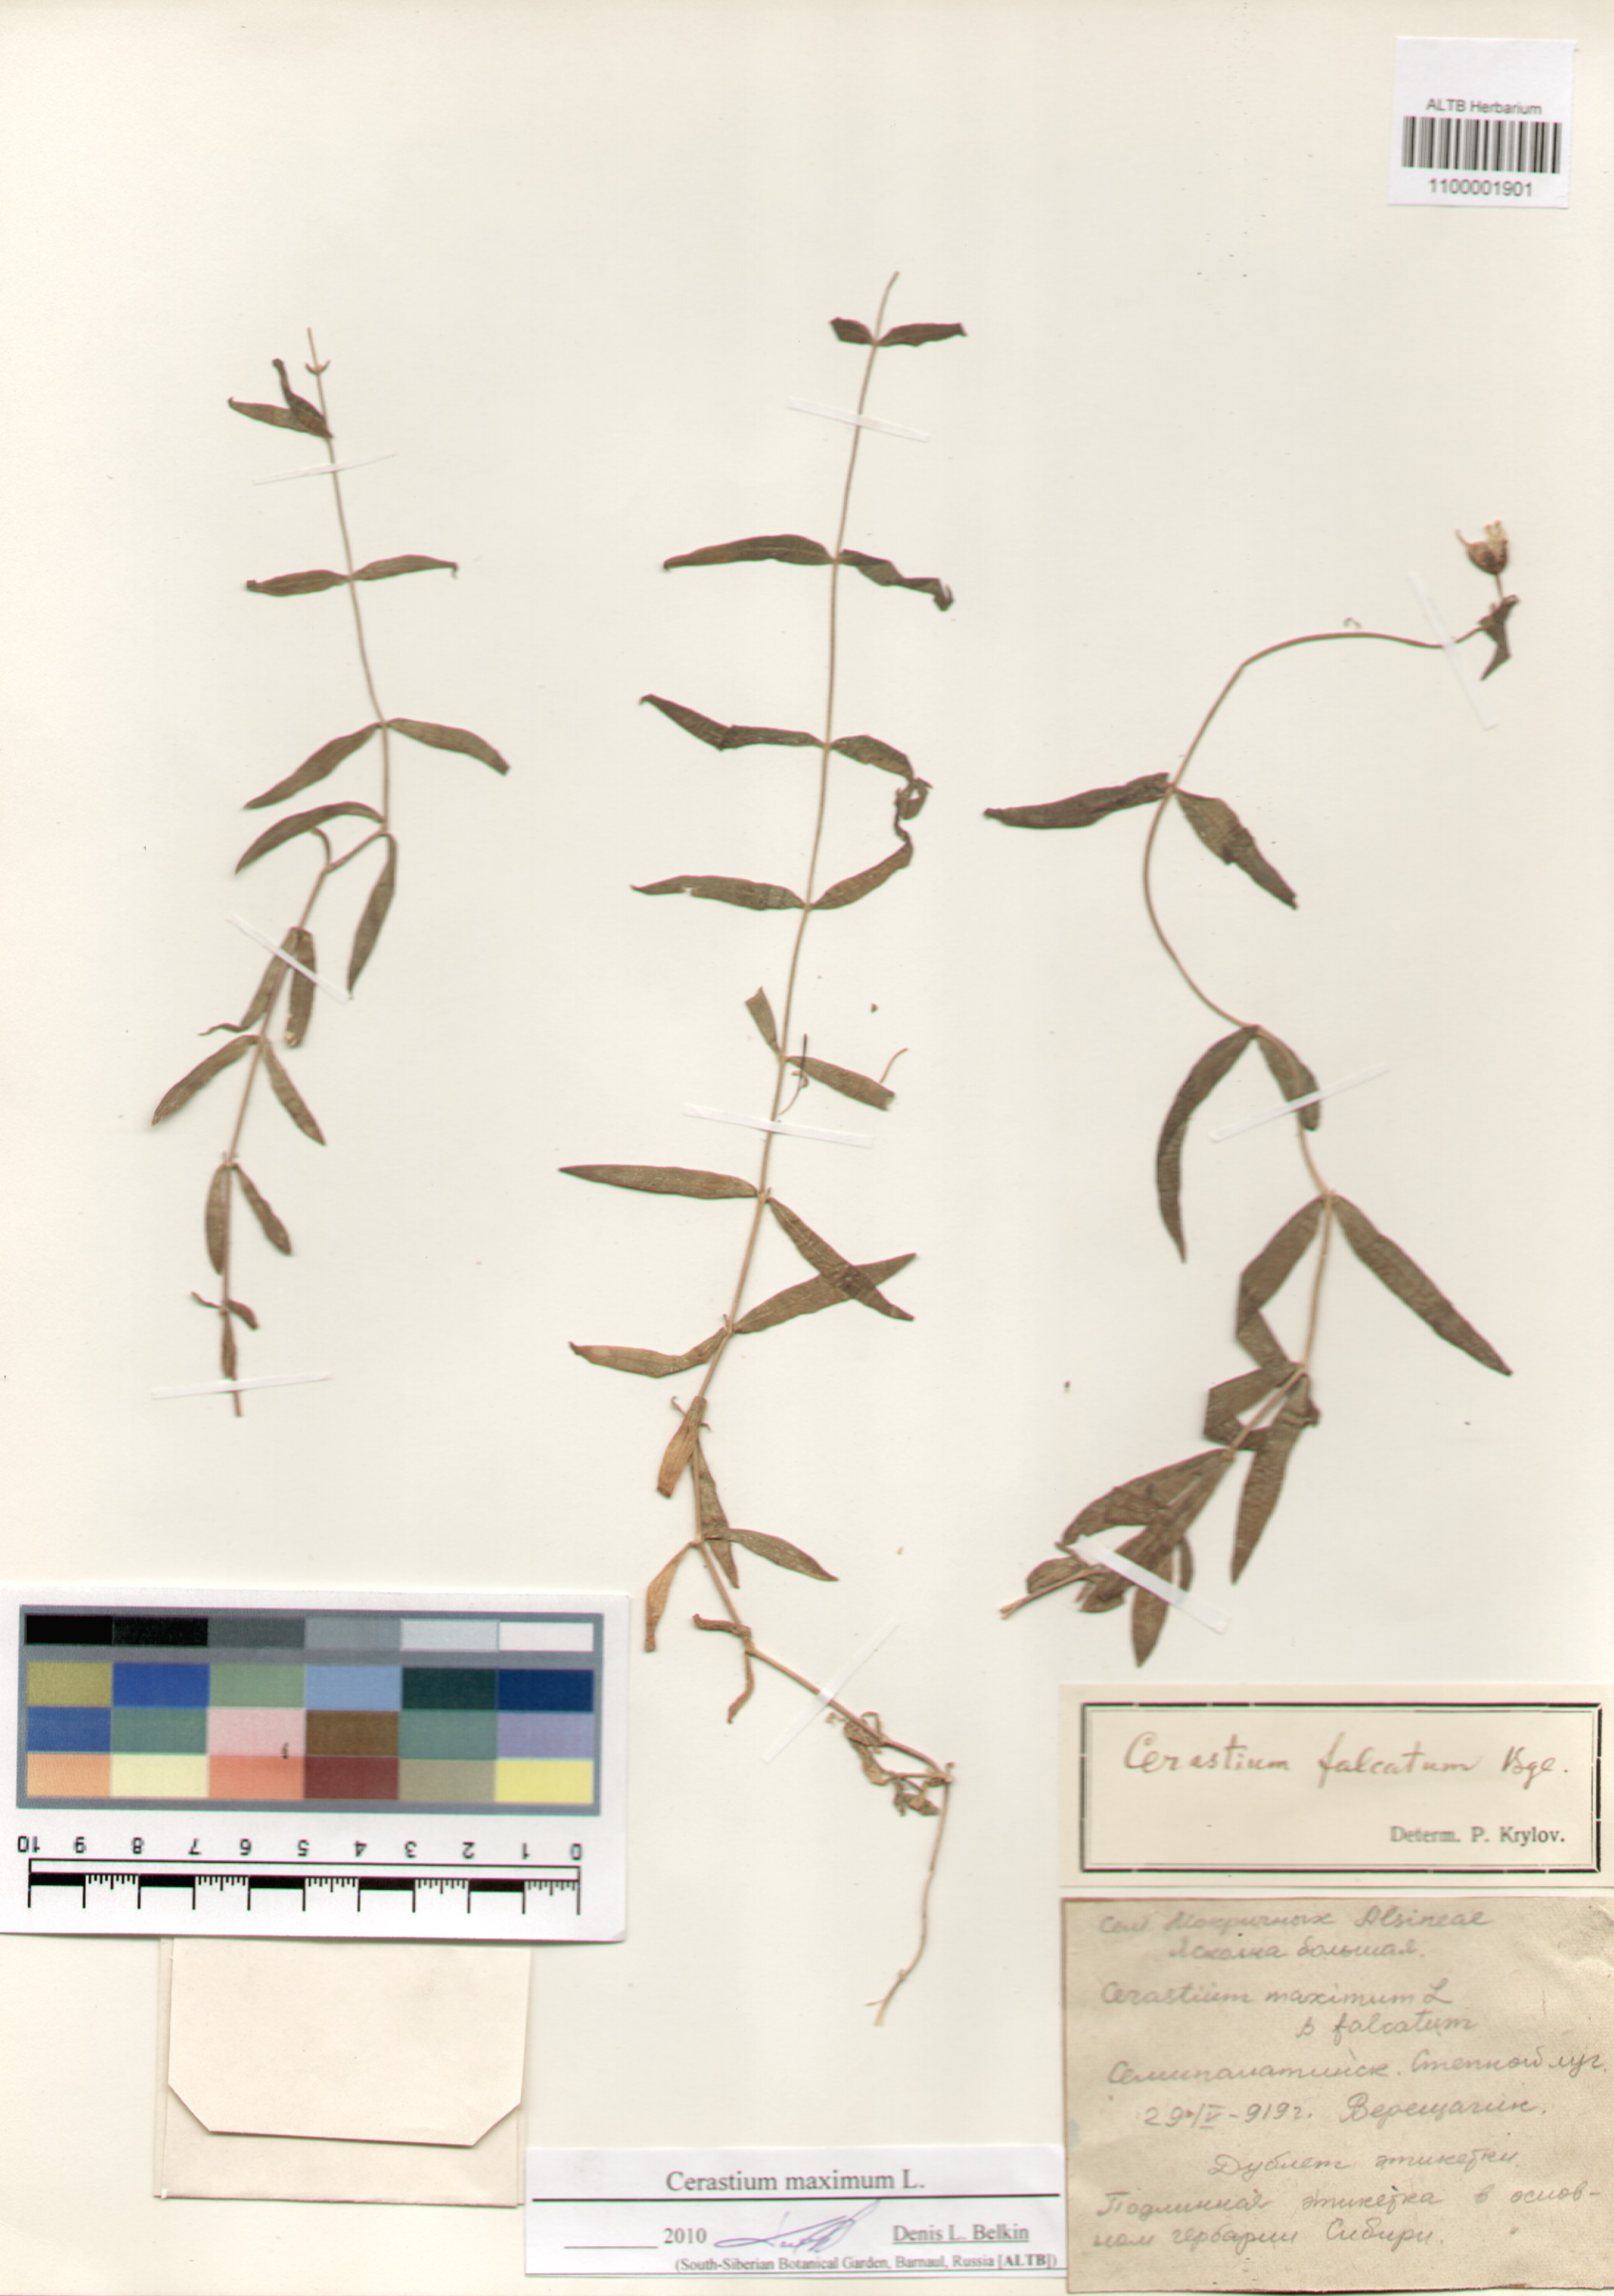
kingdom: Plantae
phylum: Tracheophyta
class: Magnoliopsida
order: Caryophyllales
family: Caryophyllaceae
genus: Dichodon
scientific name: Dichodon maximum
